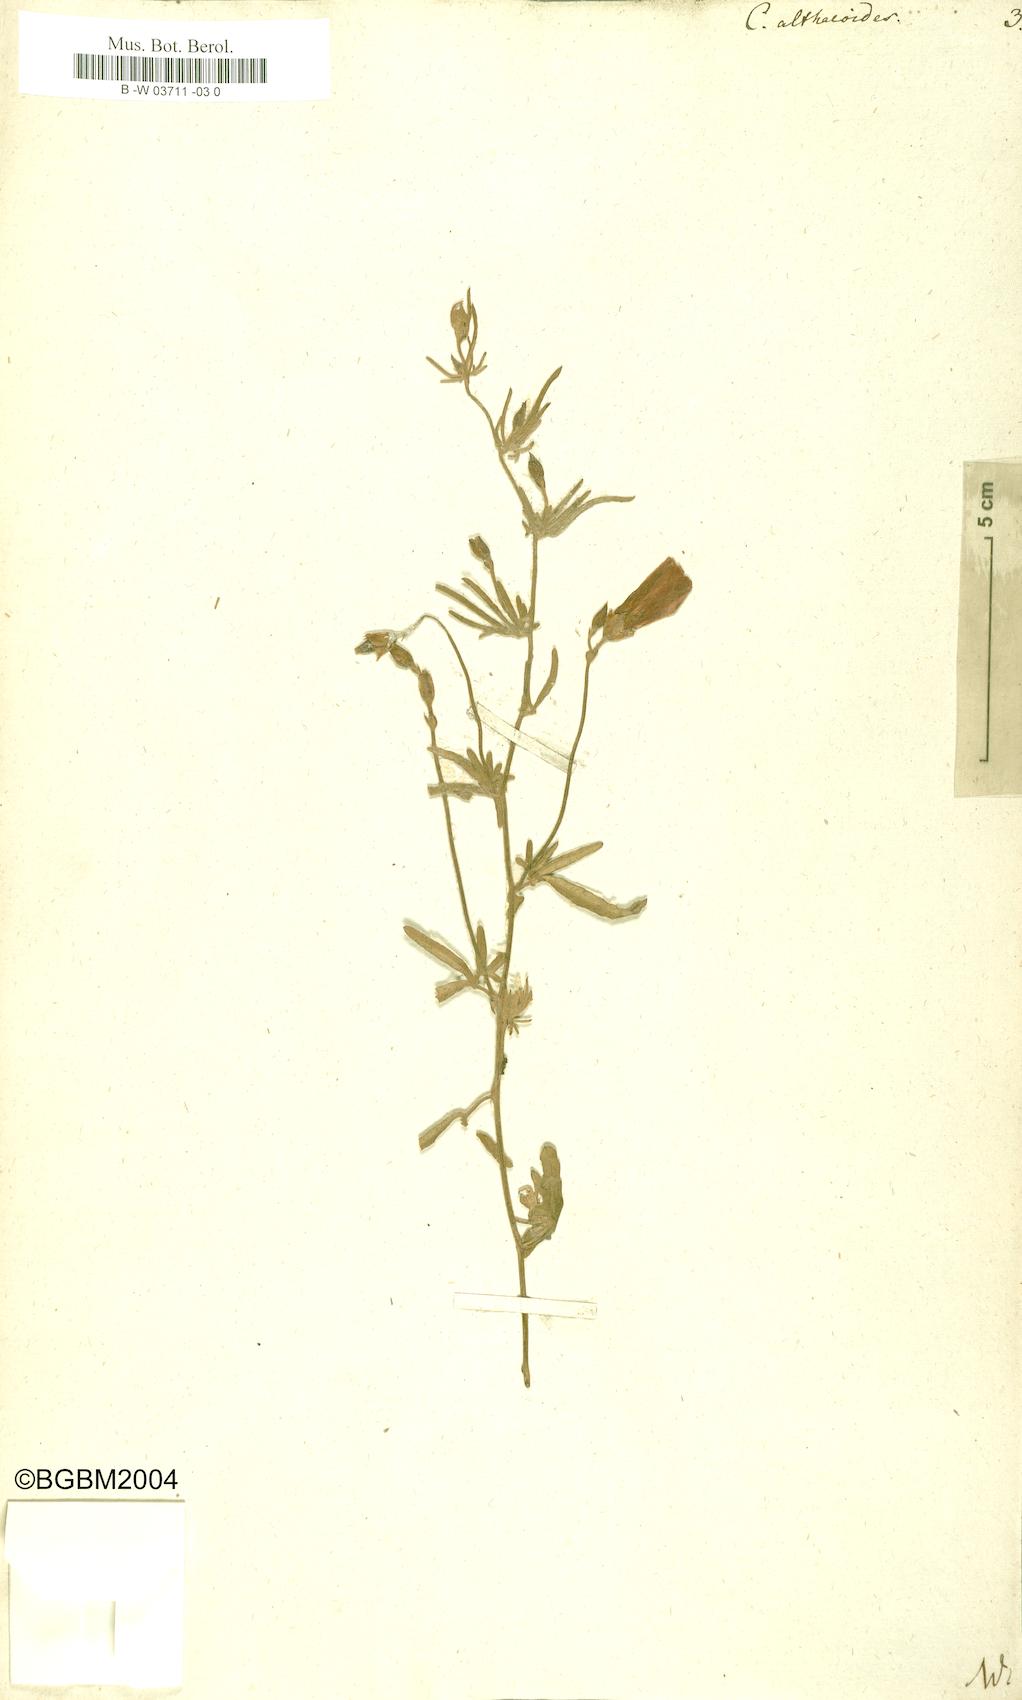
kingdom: Plantae
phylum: Tracheophyta
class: Magnoliopsida
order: Solanales
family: Convolvulaceae
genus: Convolvulus
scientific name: Convolvulus althaeoides
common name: Mallow bindweed
